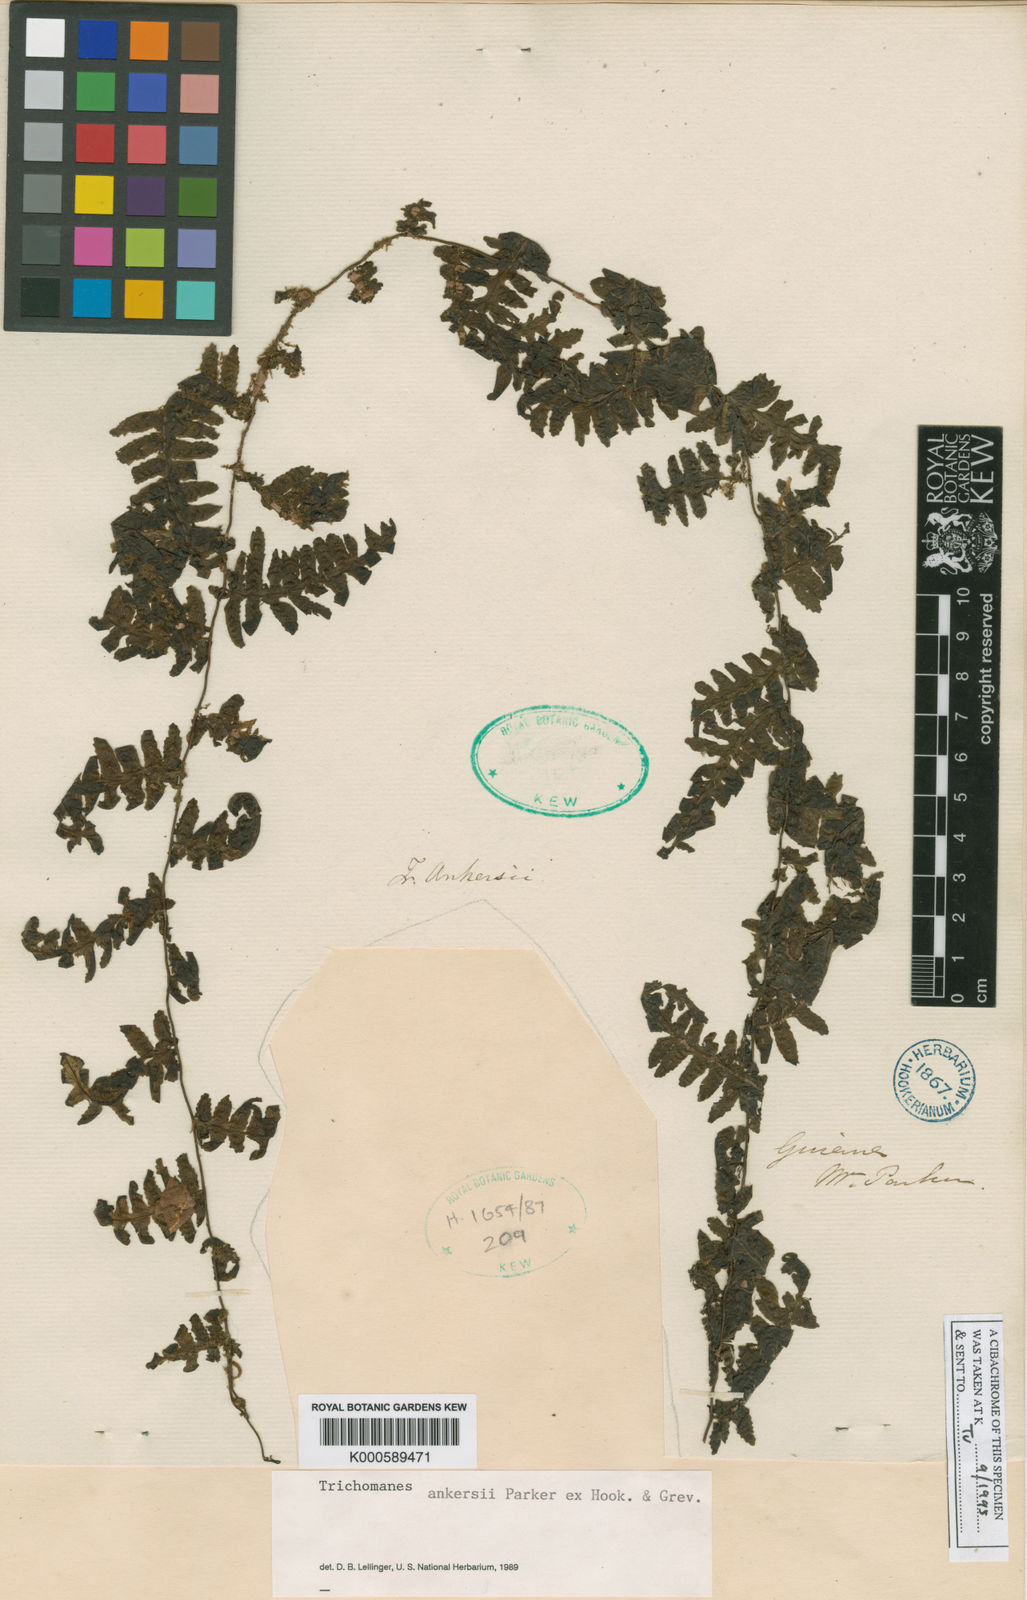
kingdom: Plantae
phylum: Tracheophyta
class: Polypodiopsida
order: Hymenophyllales
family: Hymenophyllaceae
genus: Trichomanes
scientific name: Trichomanes ankersii
